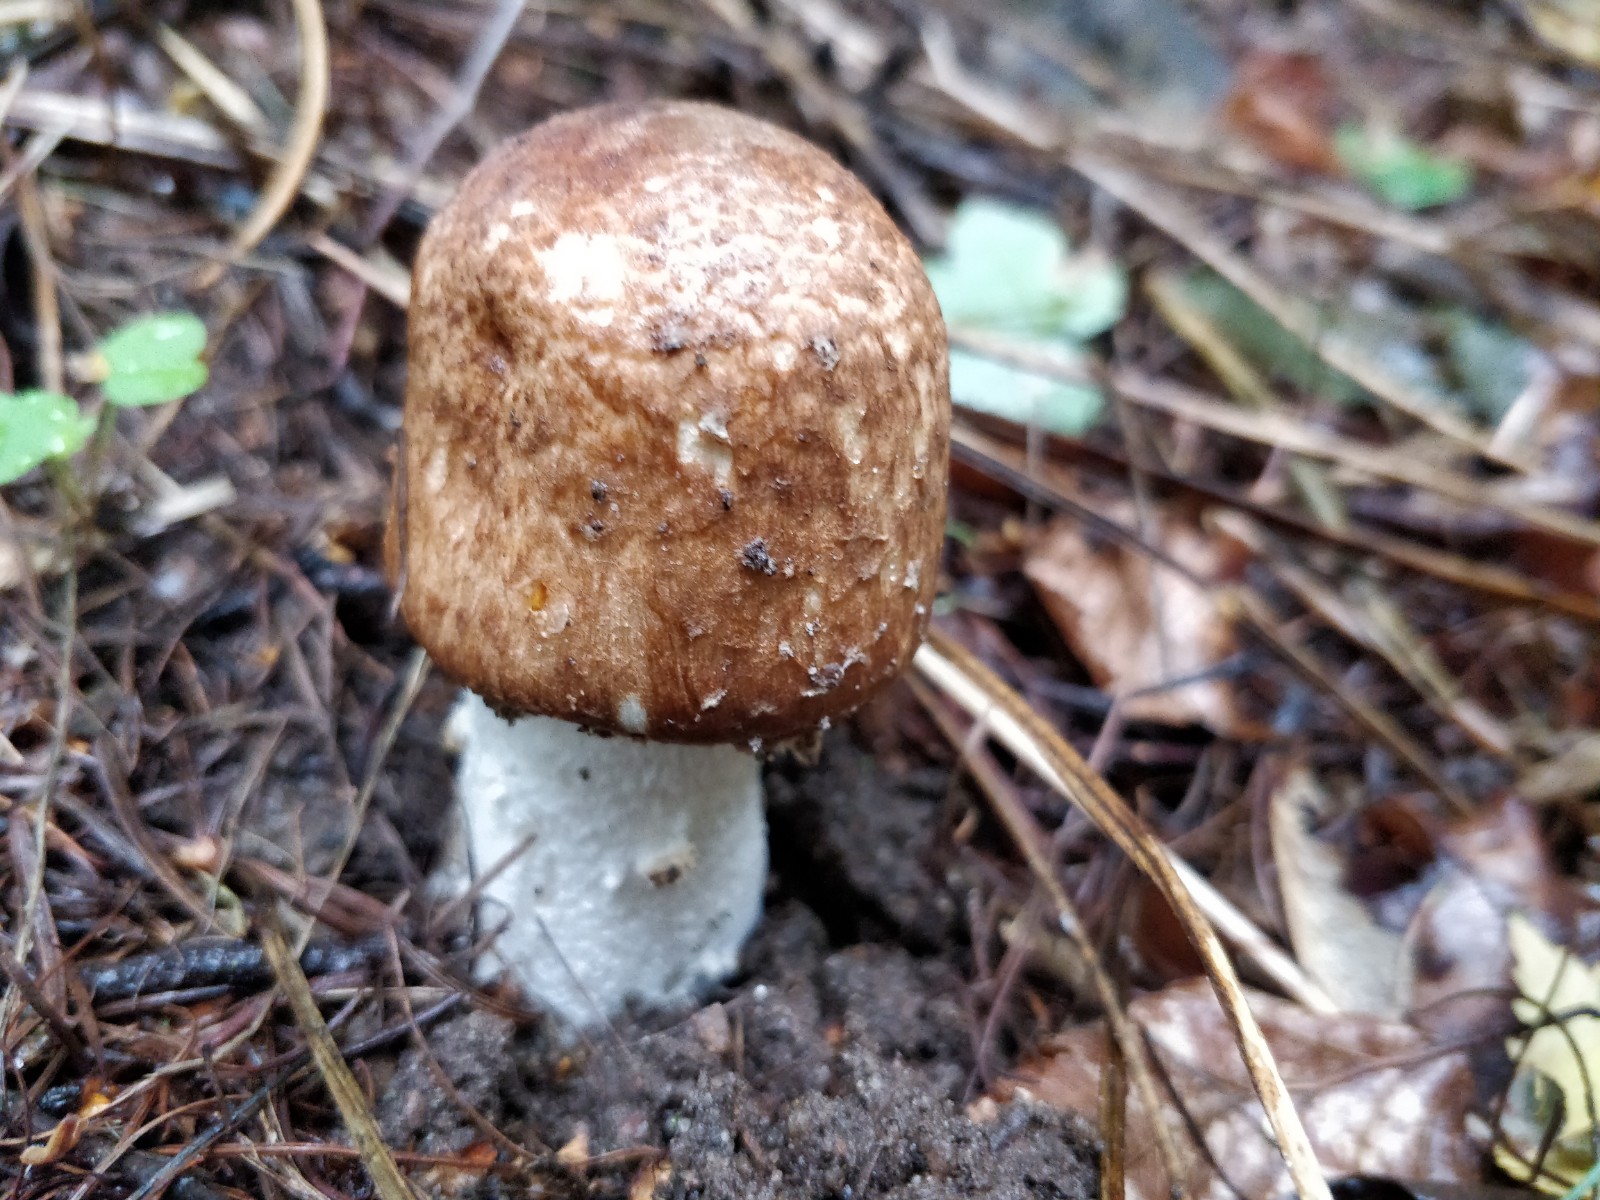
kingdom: Fungi
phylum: Basidiomycota
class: Agaricomycetes
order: Agaricales
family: Agaricaceae
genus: Agaricus
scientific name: Agaricus augustus
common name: prægtig champignon
